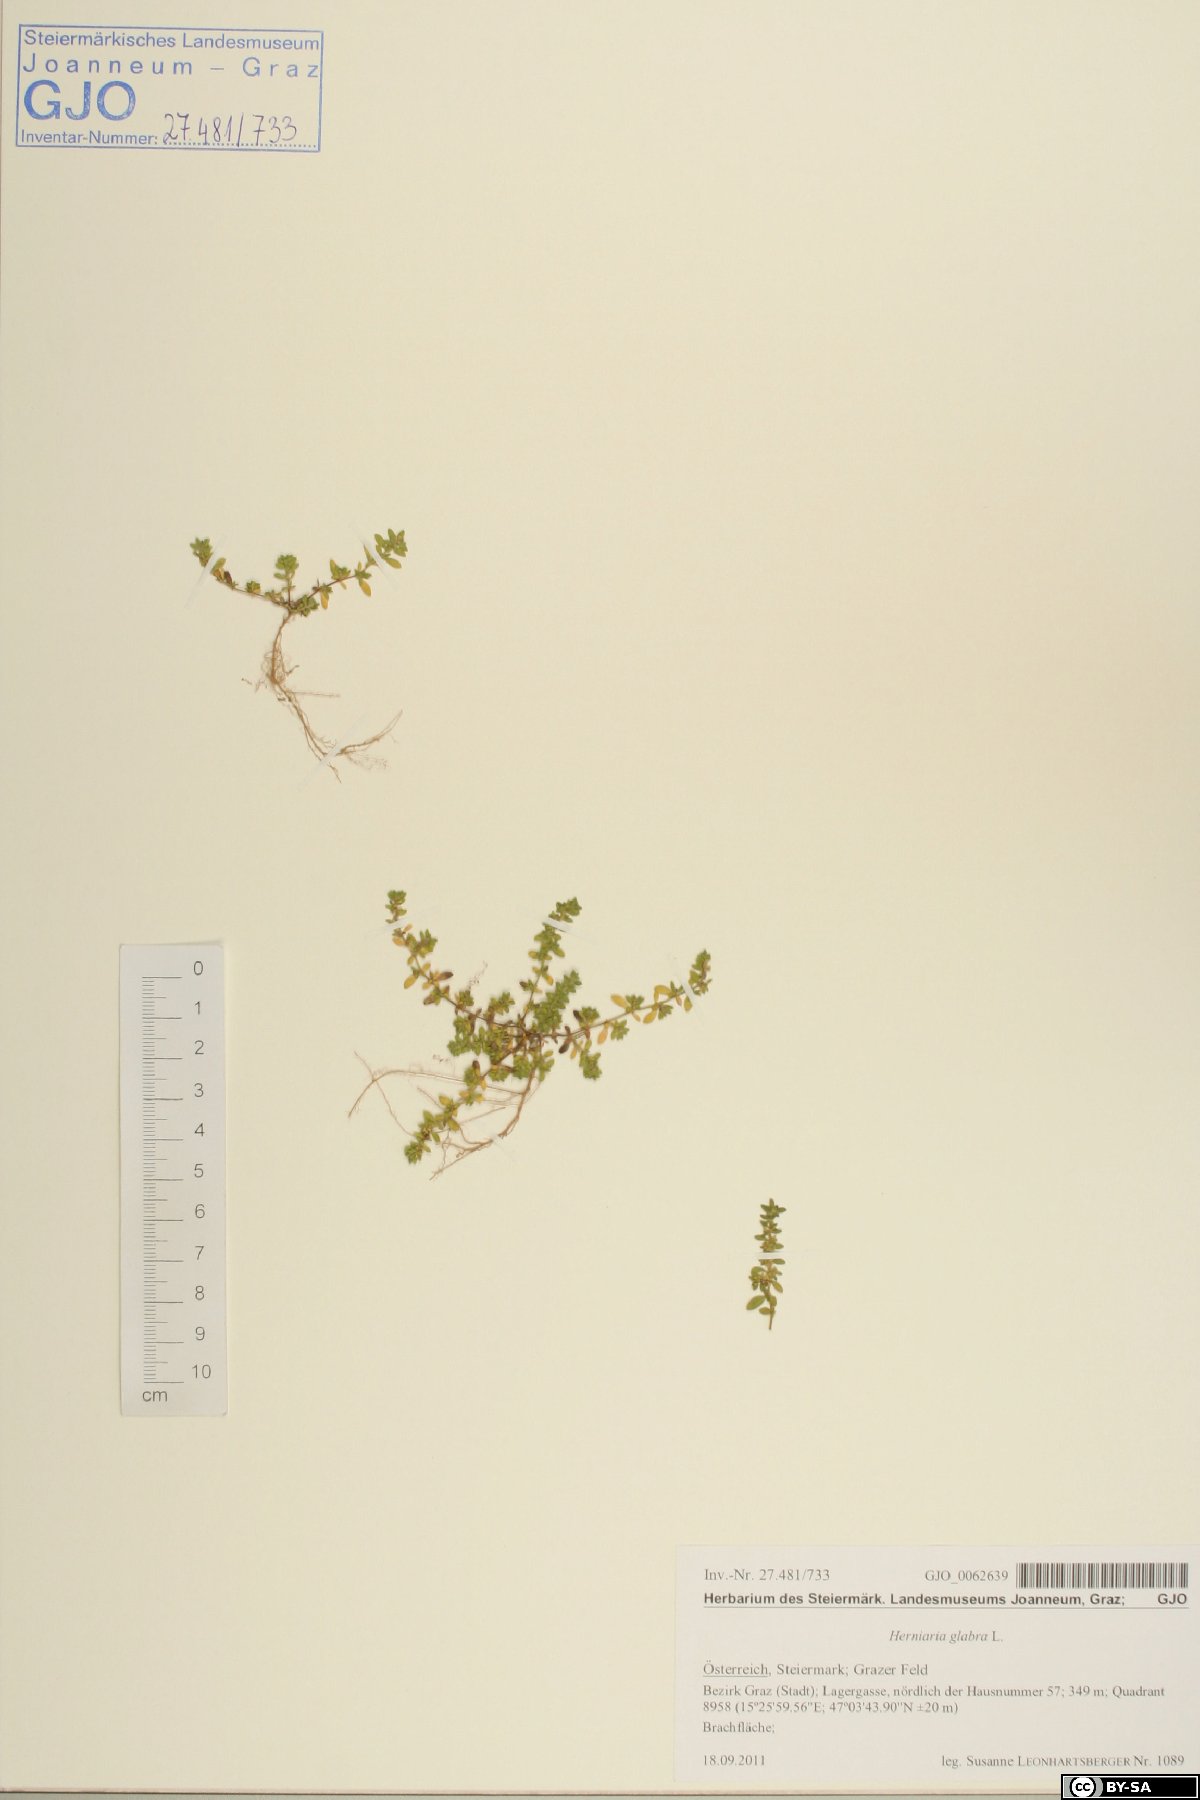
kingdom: Plantae
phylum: Tracheophyta
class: Magnoliopsida
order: Caryophyllales
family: Caryophyllaceae
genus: Herniaria
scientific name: Herniaria glabra
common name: Smooth rupturewort
